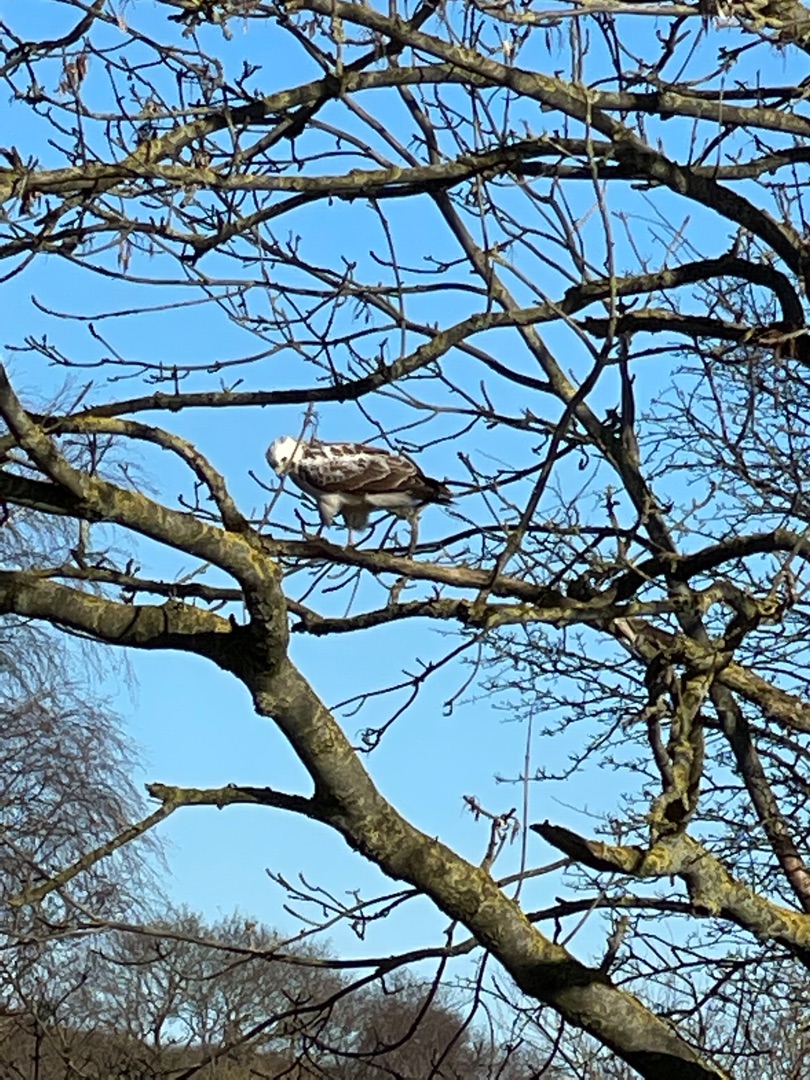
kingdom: Animalia
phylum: Chordata
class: Aves
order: Accipitriformes
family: Accipitridae
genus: Buteo
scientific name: Buteo buteo
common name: Musvåge
